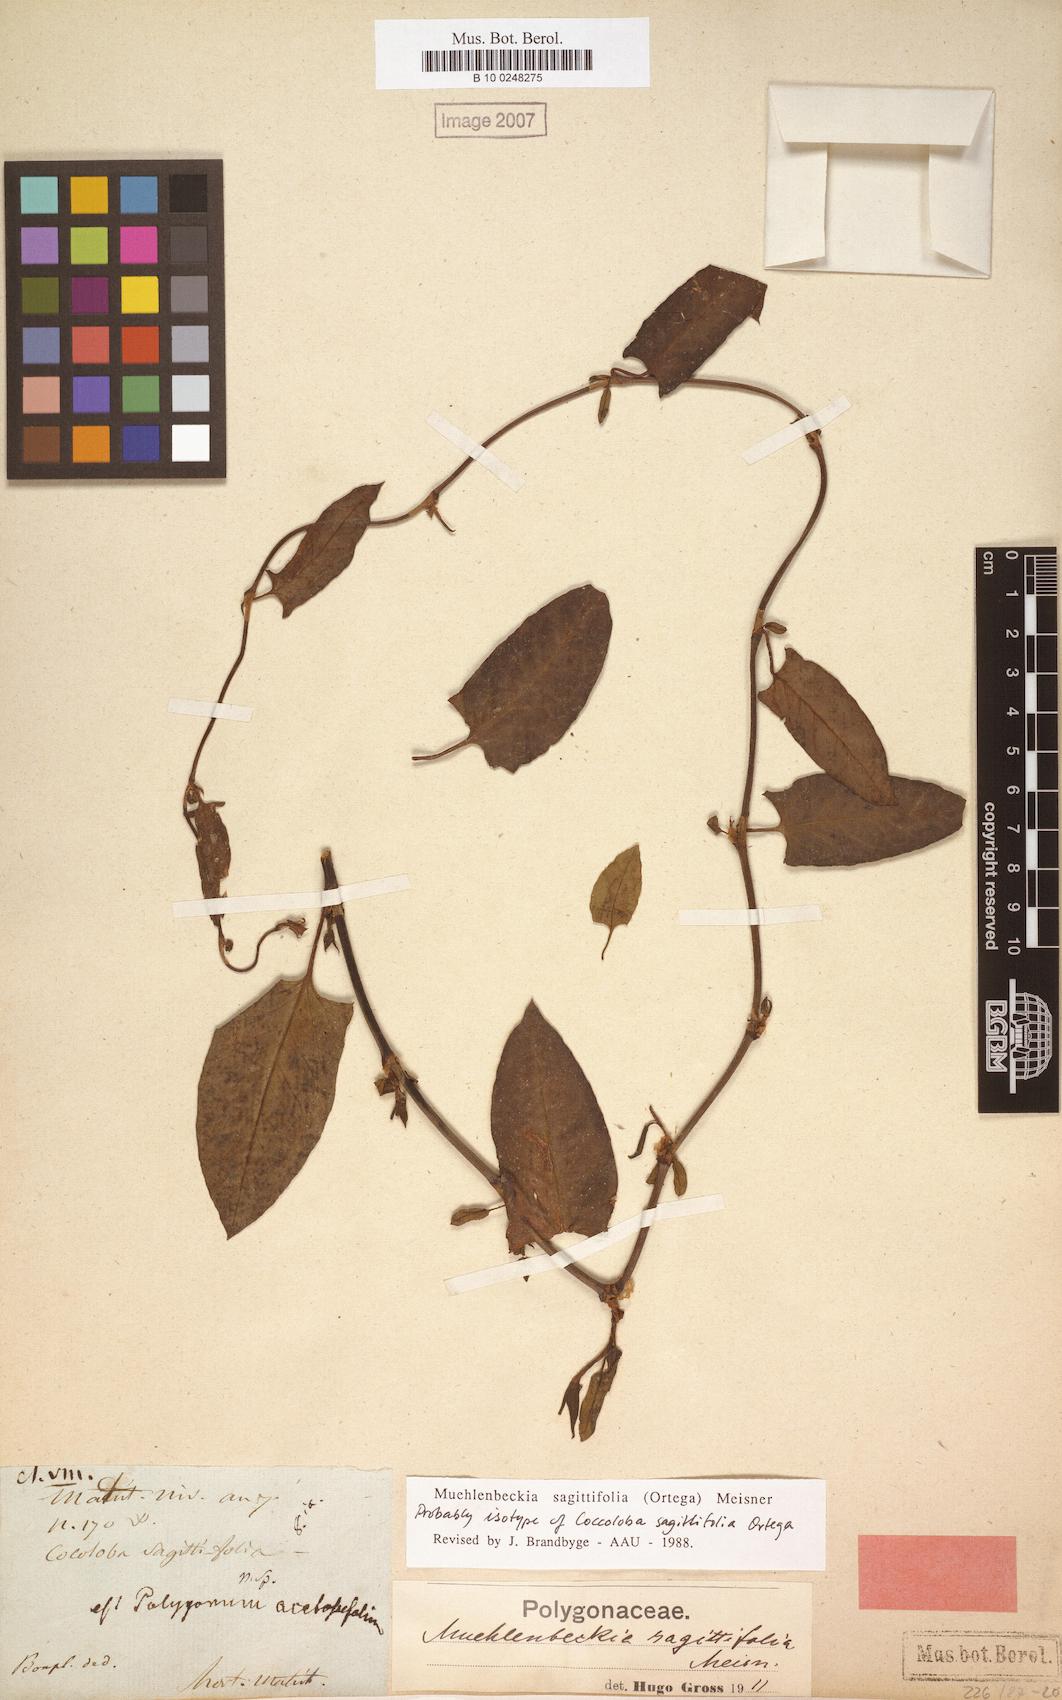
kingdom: Plantae
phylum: Tracheophyta
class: Magnoliopsida
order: Caryophyllales
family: Polygonaceae
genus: Muehlenbeckia
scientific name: Muehlenbeckia sagittifolia
